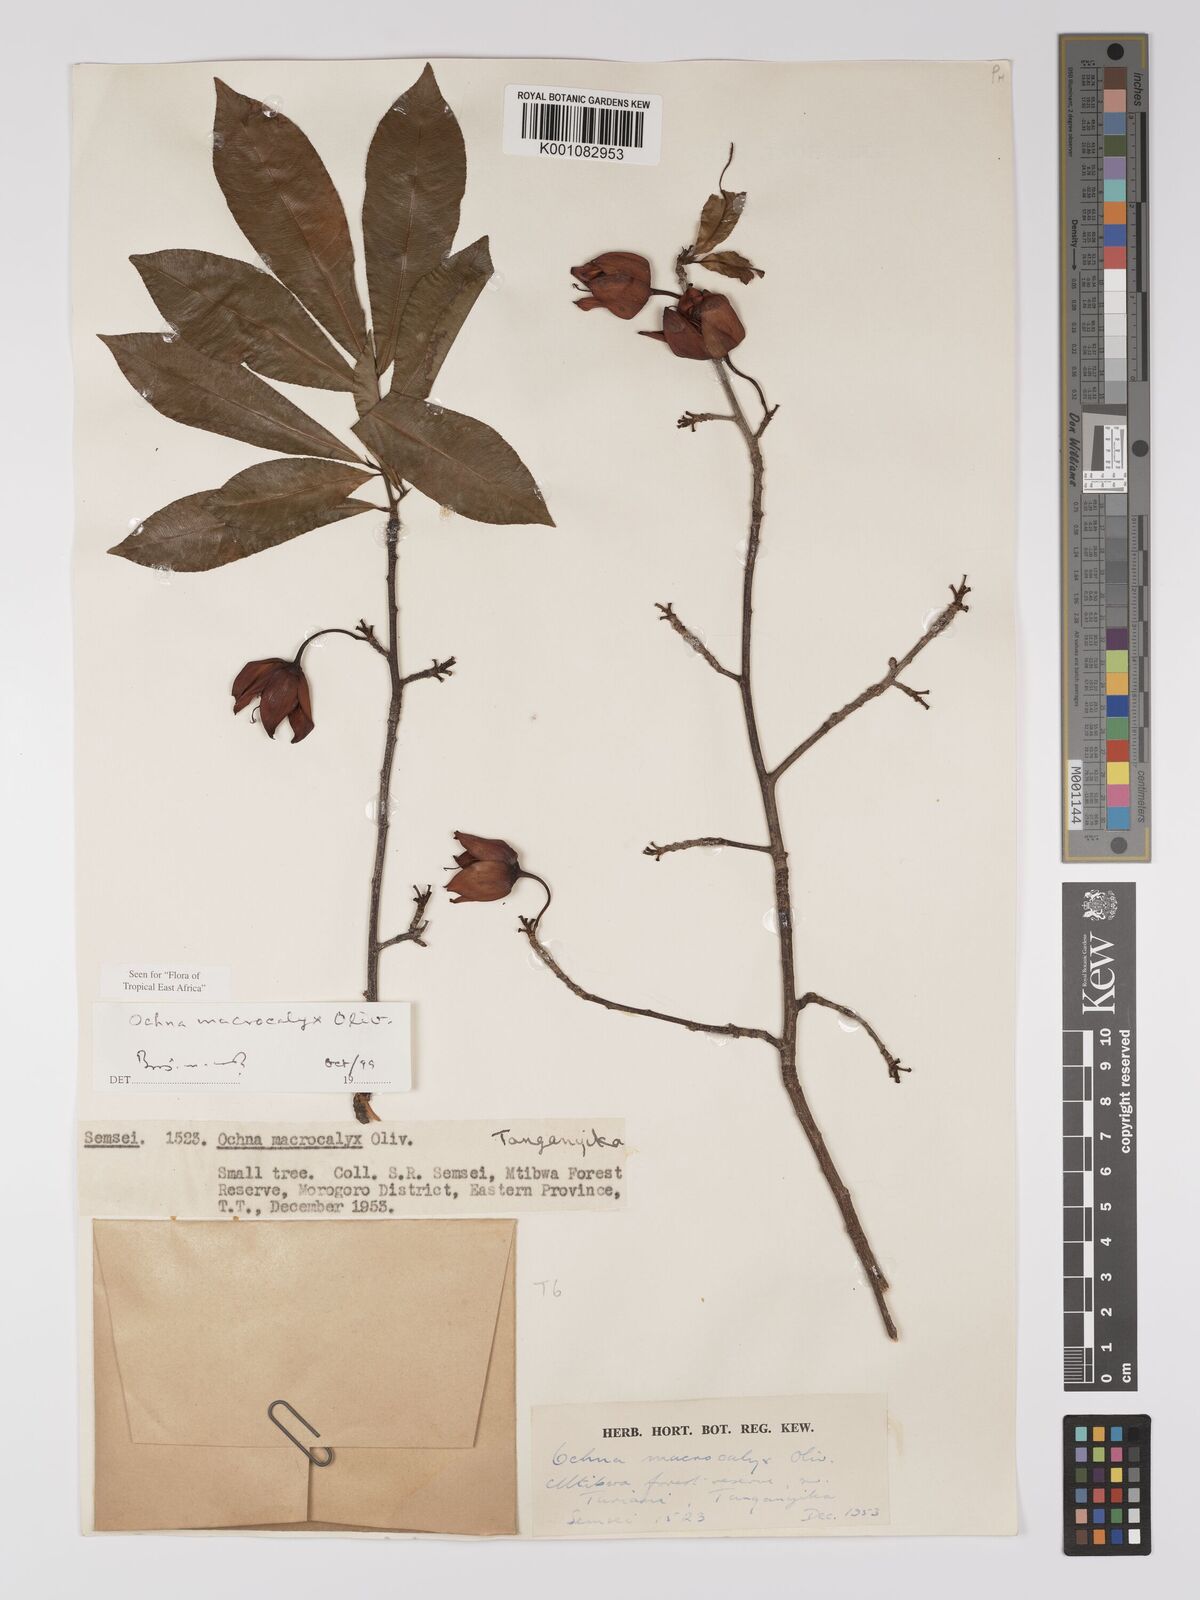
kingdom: Plantae
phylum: Tracheophyta
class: Magnoliopsida
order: Malpighiales
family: Ochnaceae
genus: Ochna
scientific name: Ochna macrocalyx
